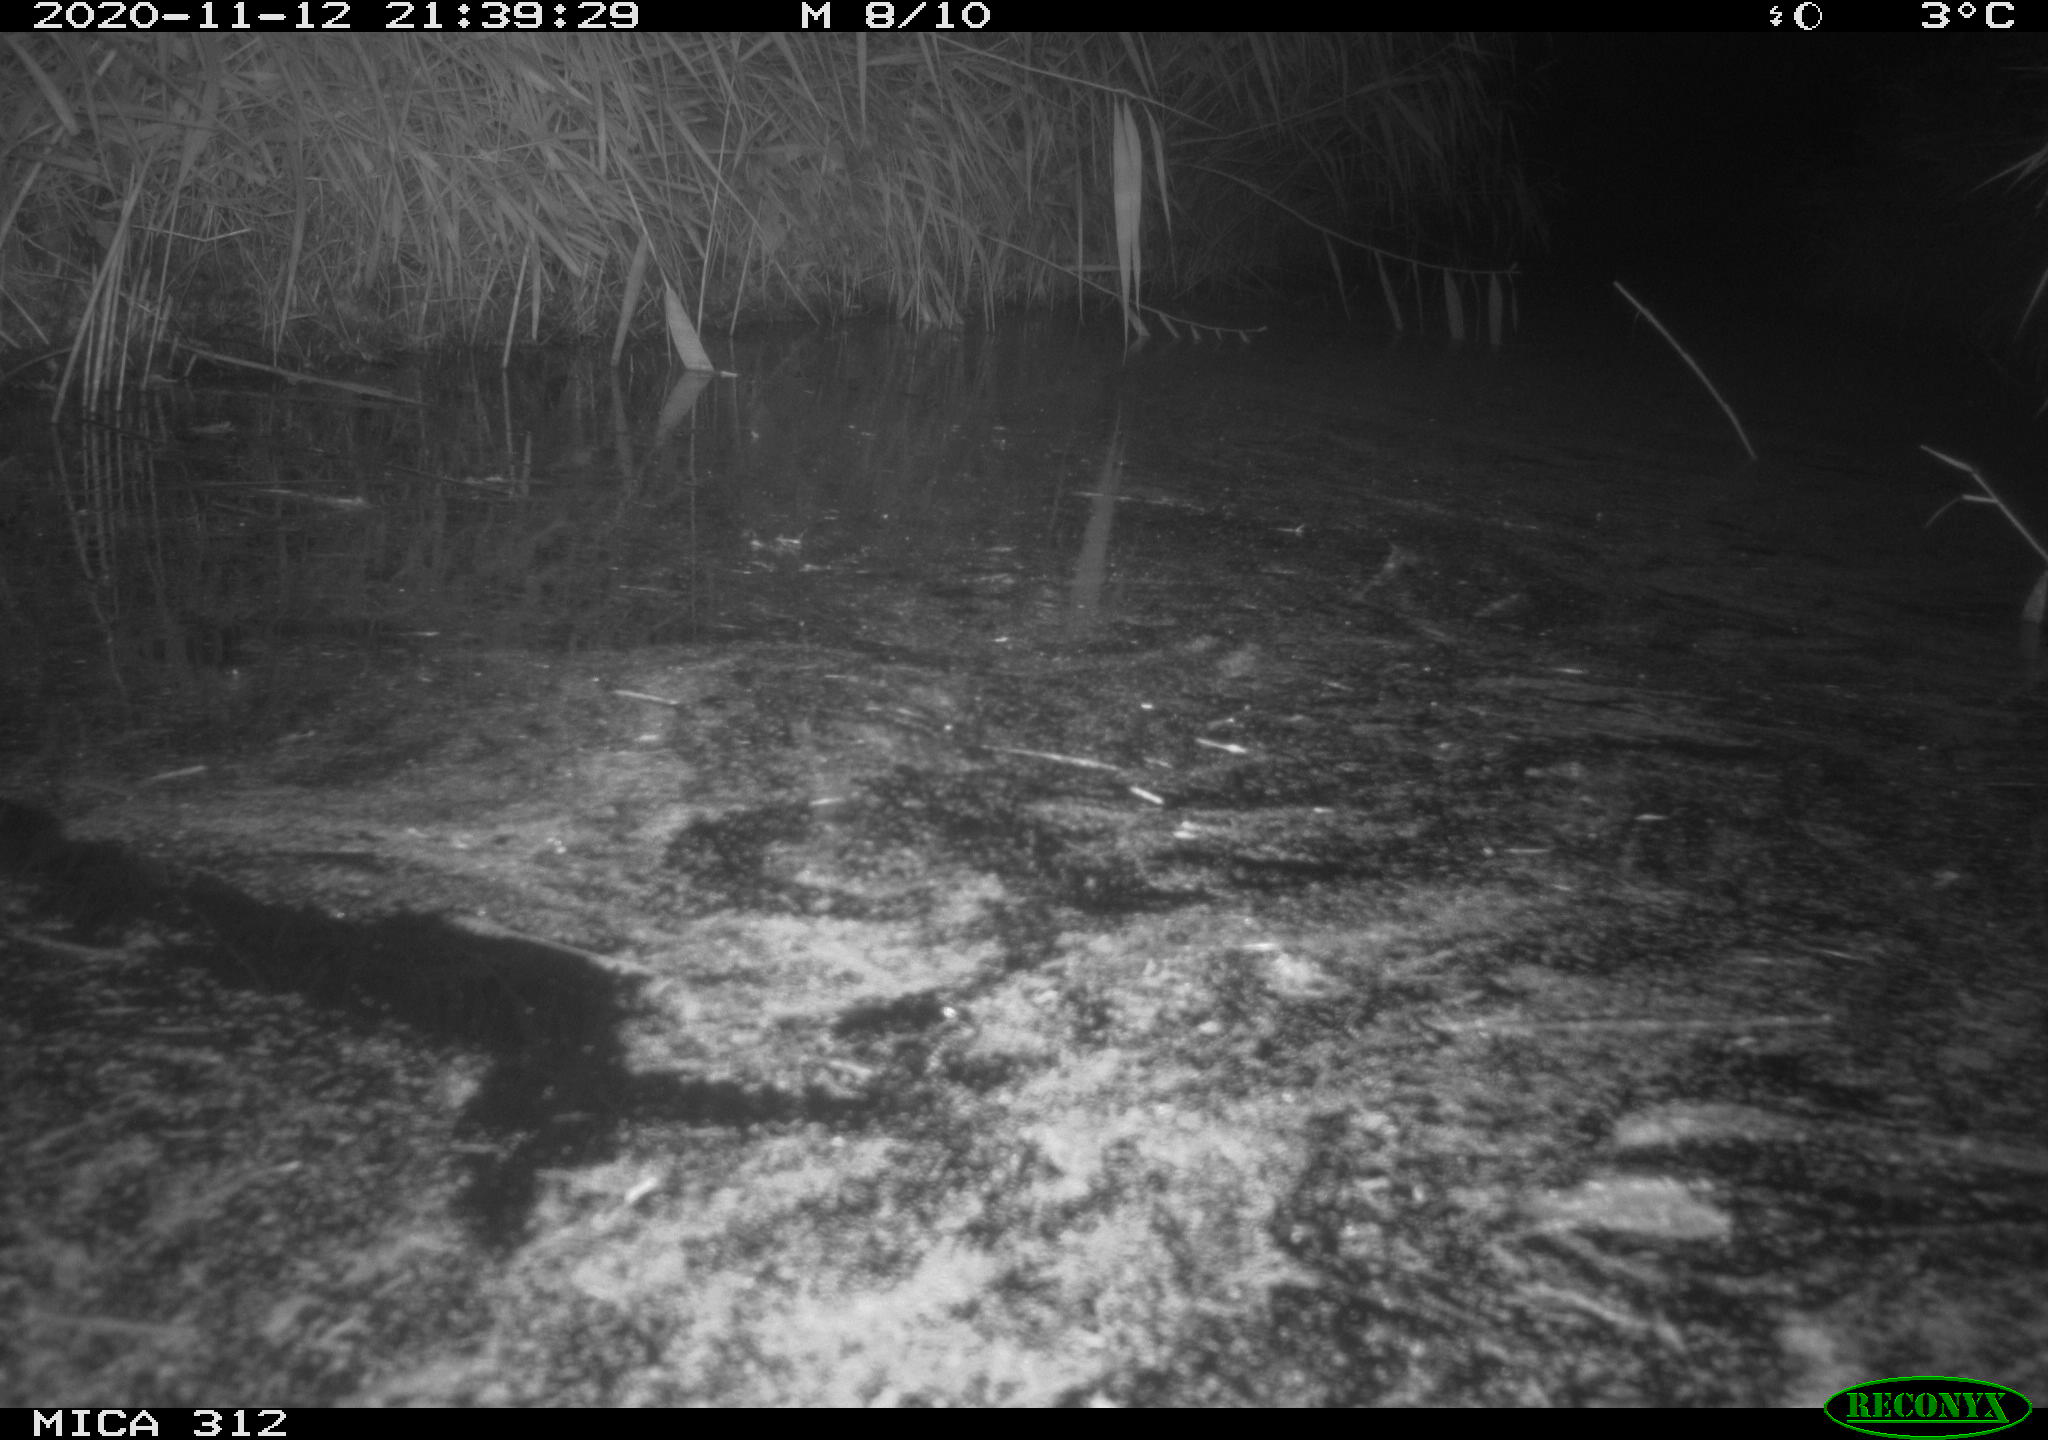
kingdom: Animalia
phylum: Chordata
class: Mammalia
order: Rodentia
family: Muridae
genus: Rattus
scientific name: Rattus norvegicus
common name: Brown rat
